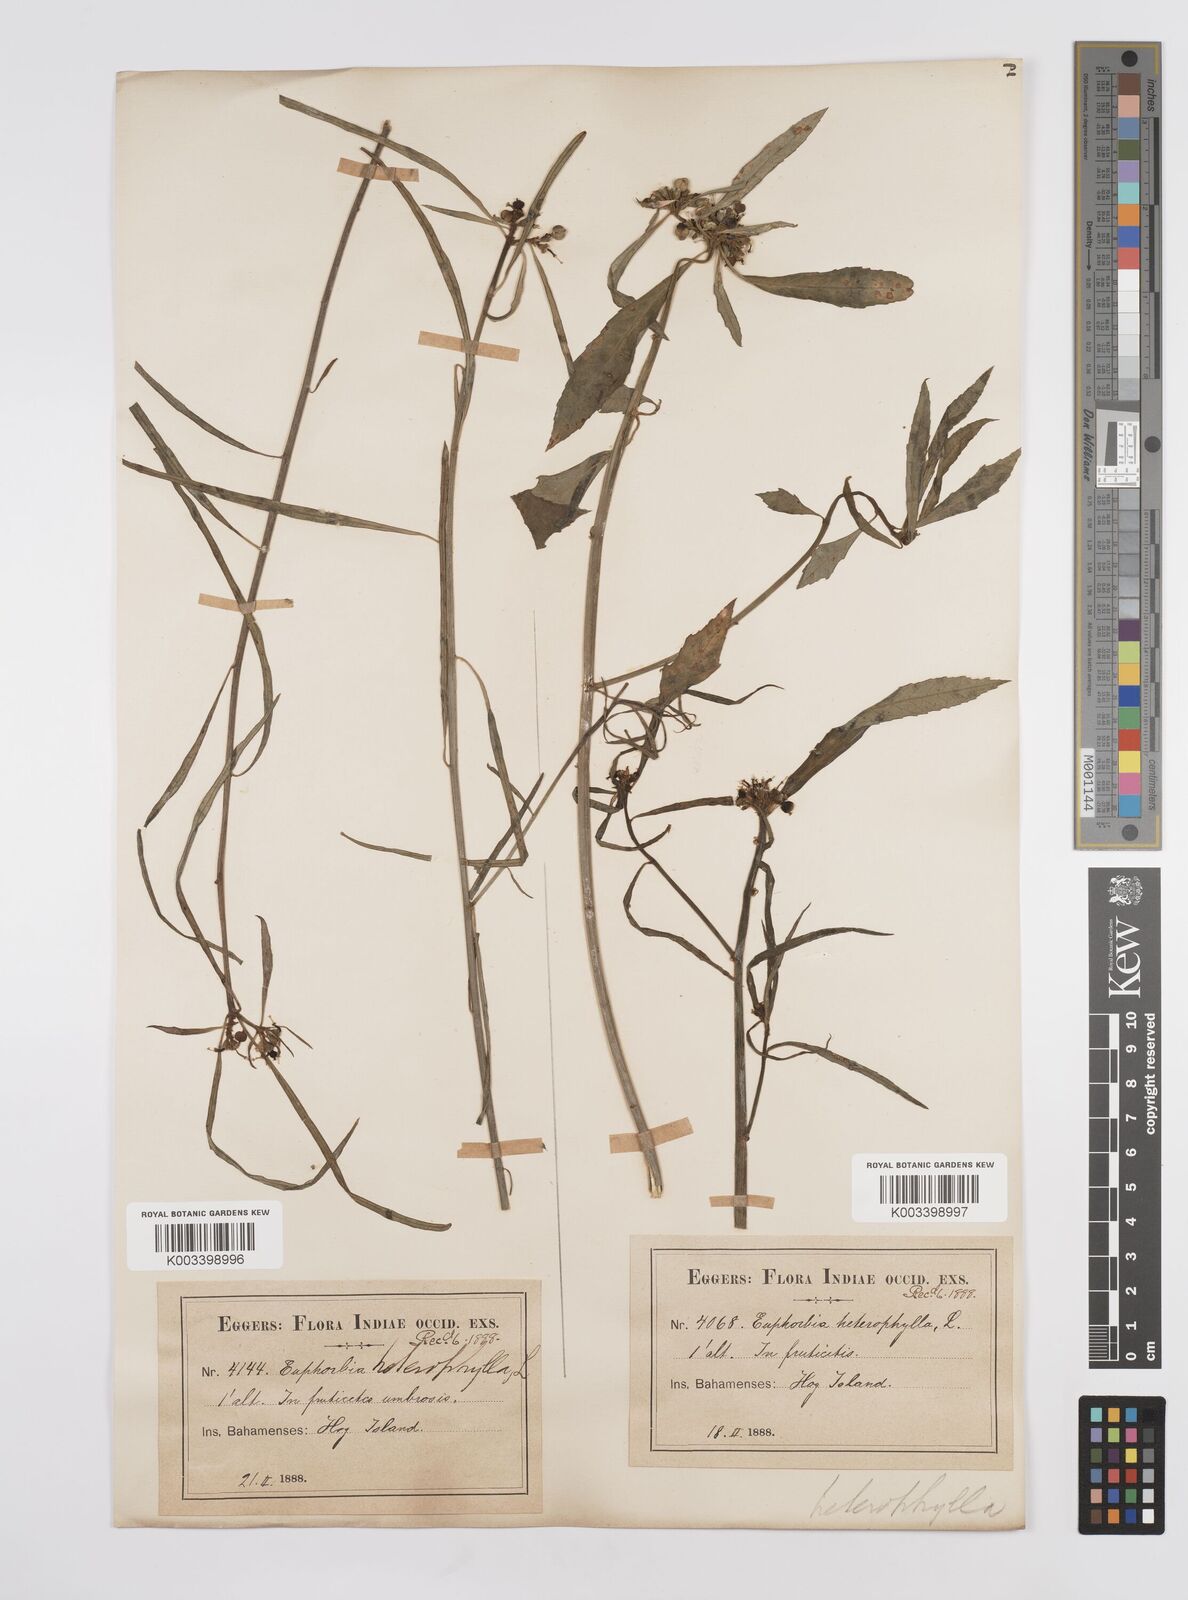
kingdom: Plantae
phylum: Tracheophyta
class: Magnoliopsida
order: Malpighiales
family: Euphorbiaceae
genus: Euphorbia
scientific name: Euphorbia heterophylla
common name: Mexican fireplant
